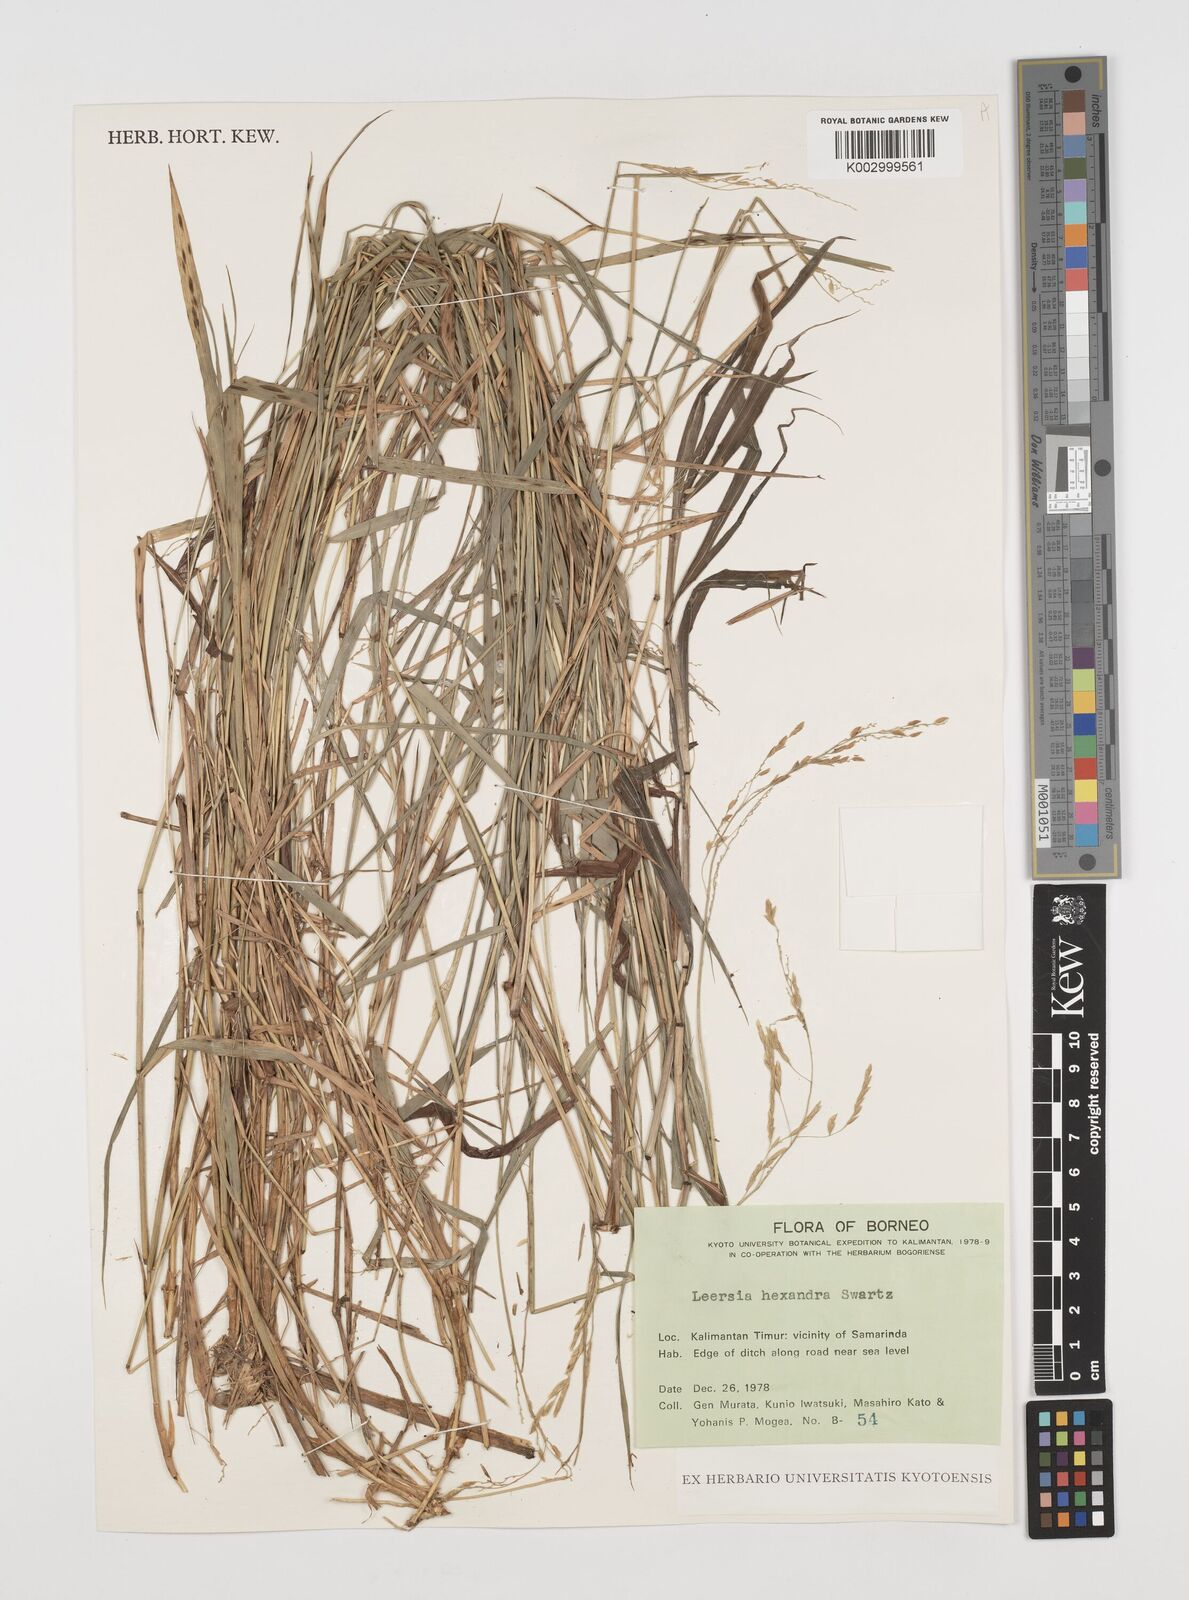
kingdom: Plantae
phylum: Tracheophyta
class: Liliopsida
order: Poales
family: Poaceae
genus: Leersia
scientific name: Leersia hexandra
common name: Southern cut grass
